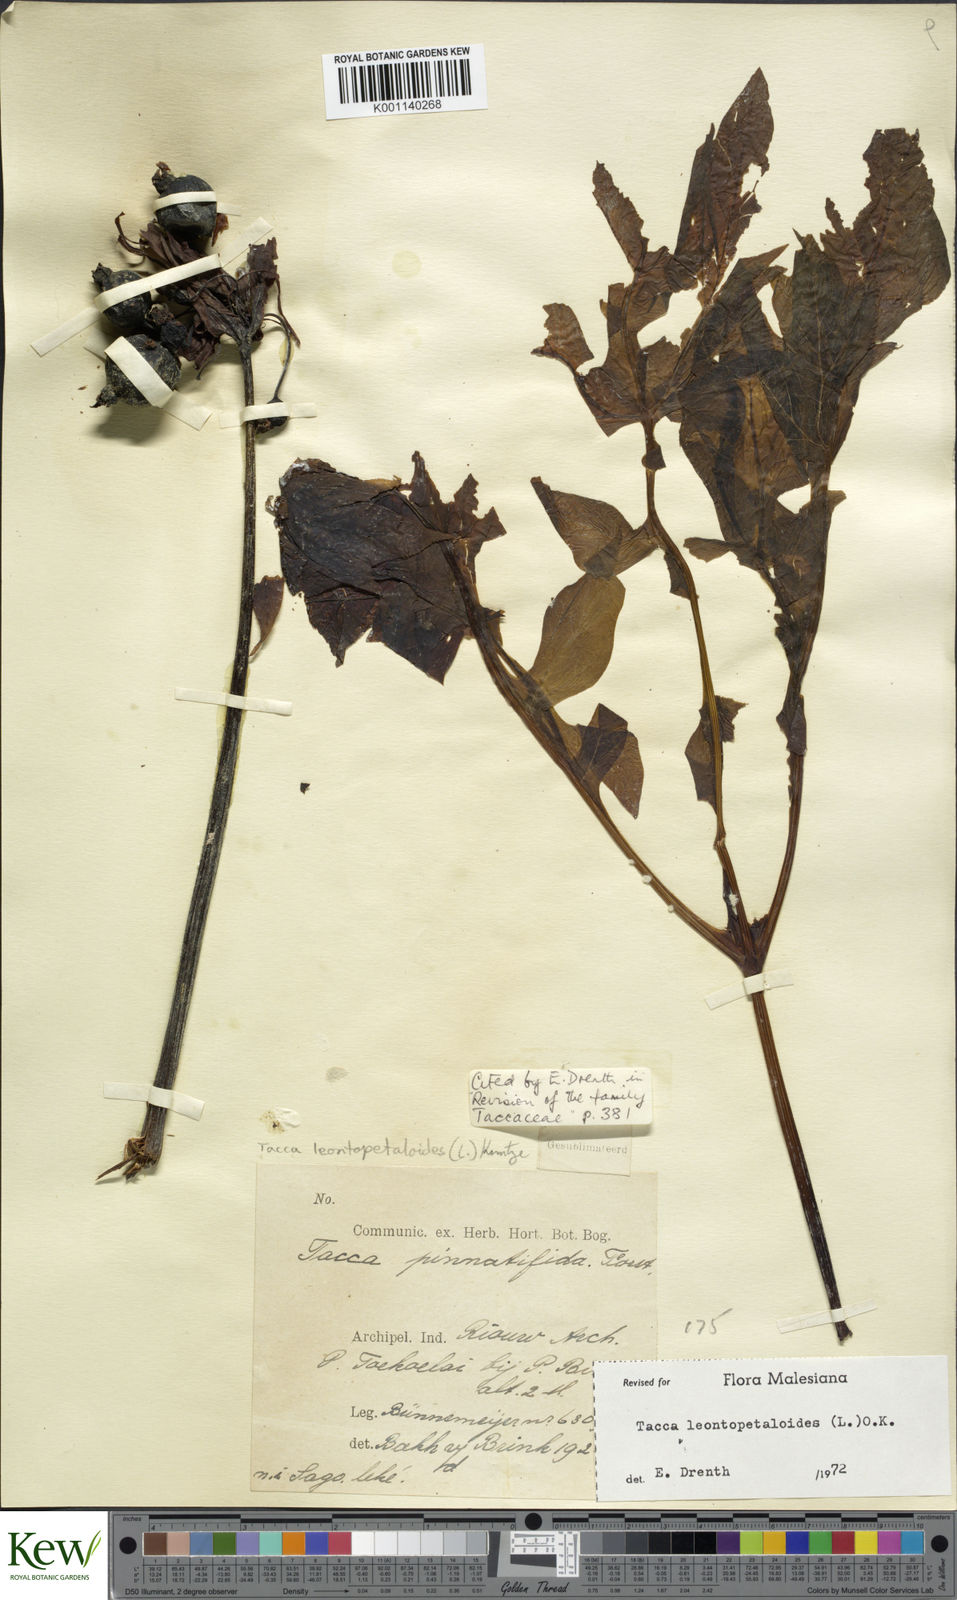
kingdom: Plantae
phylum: Tracheophyta
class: Liliopsida
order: Dioscoreales
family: Dioscoreaceae
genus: Tacca
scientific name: Tacca leontopetaloides
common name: Arrowroot
